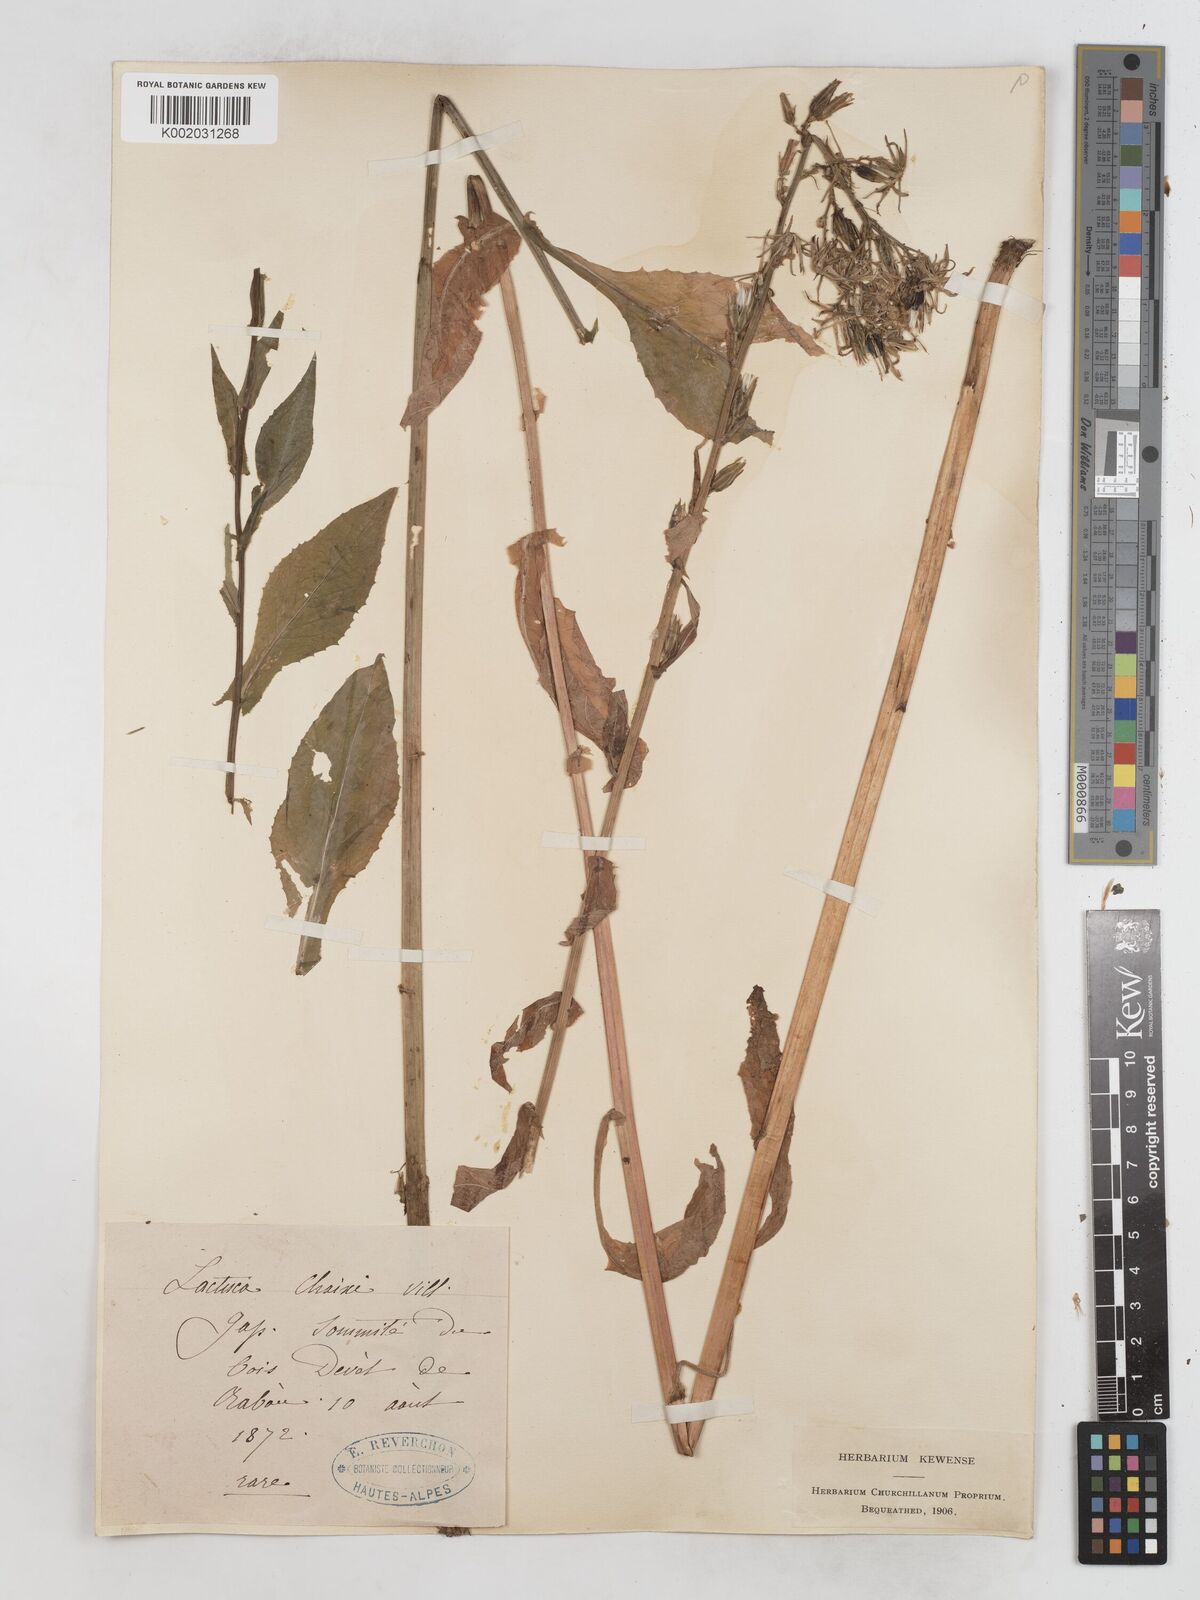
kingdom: Plantae
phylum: Tracheophyta
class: Magnoliopsida
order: Asterales
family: Asteraceae
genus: Lactuca
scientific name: Lactuca quercina
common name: Wild lettuce
